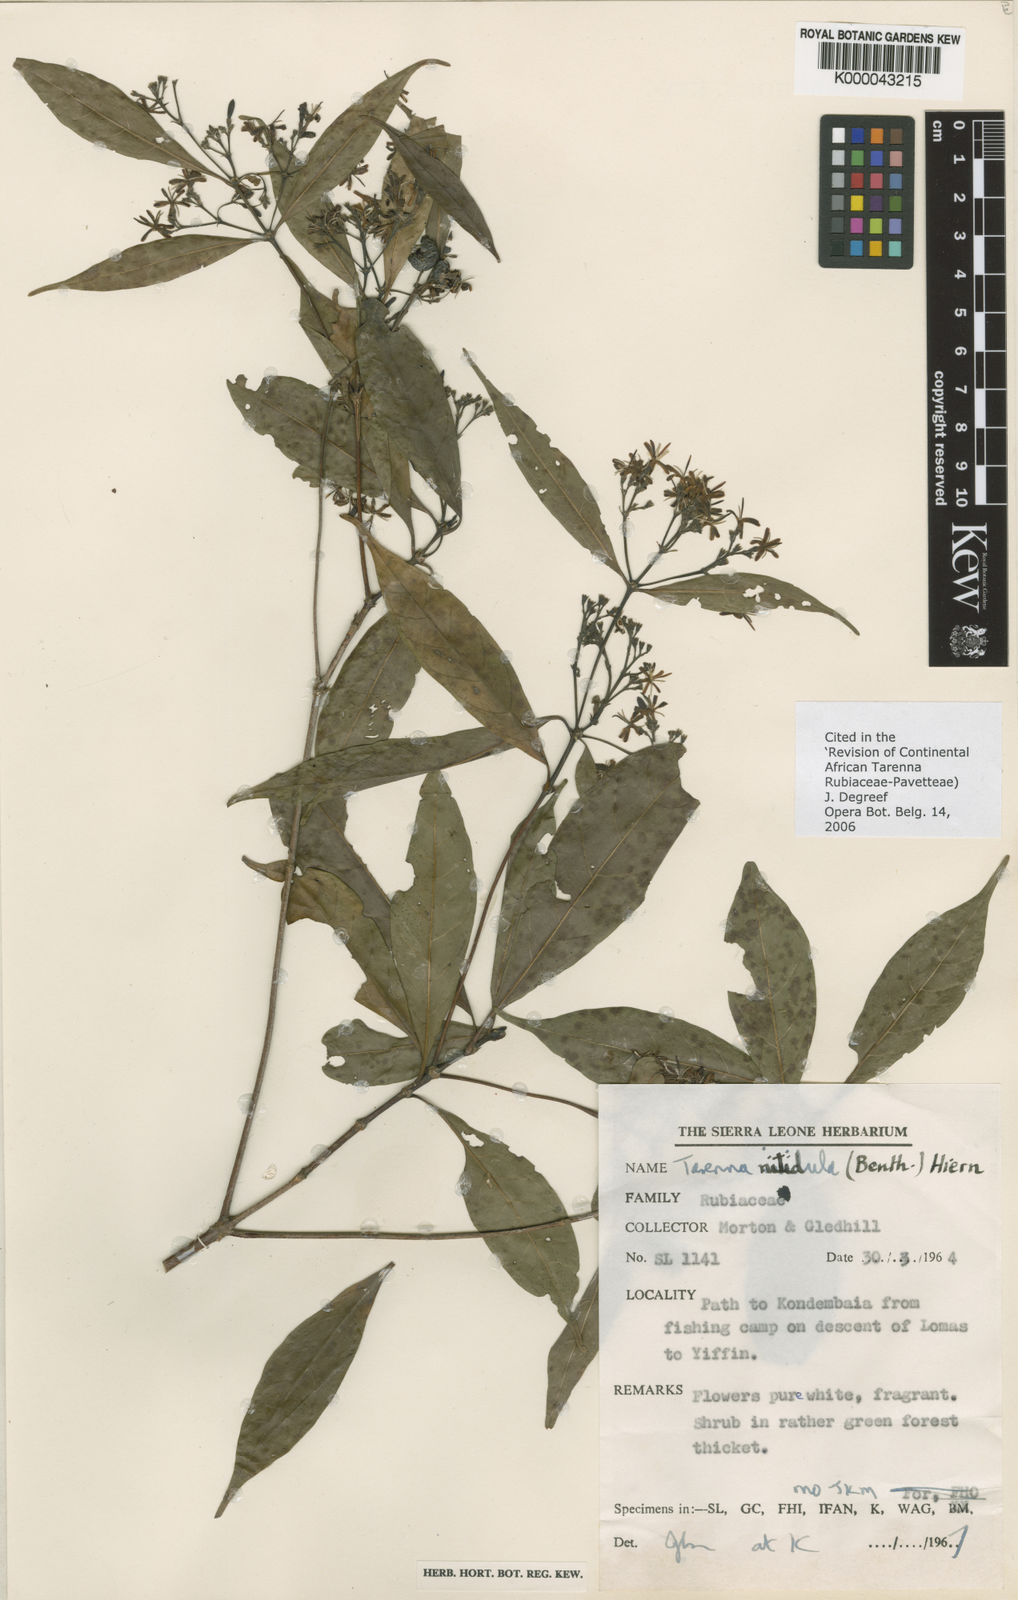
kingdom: Plantae
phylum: Tracheophyta
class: Magnoliopsida
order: Gentianales
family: Rubiaceae
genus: Tarenna
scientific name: Tarenna nitidula
